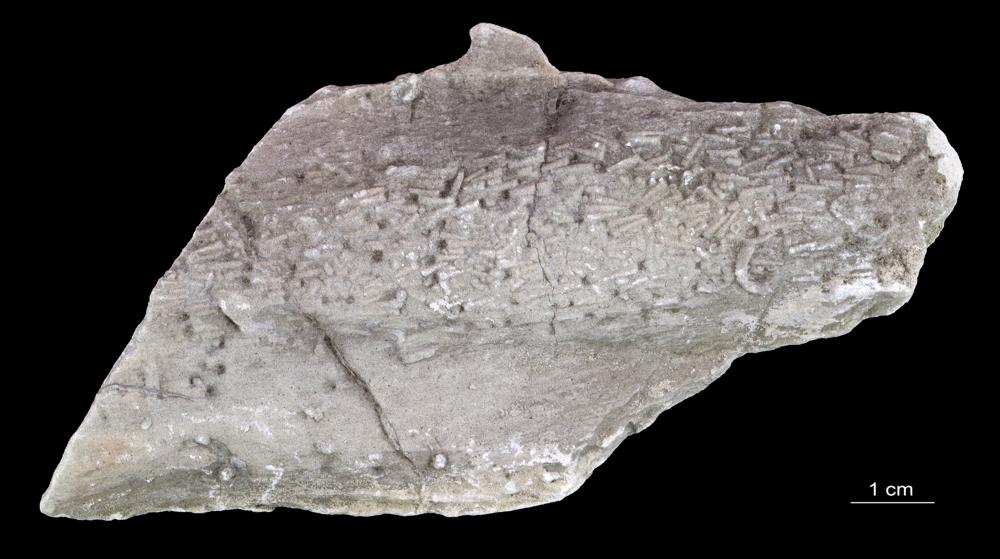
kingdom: Animalia
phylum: Annelida
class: Polychaeta
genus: Volborthella
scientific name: Volborthella tenuis
